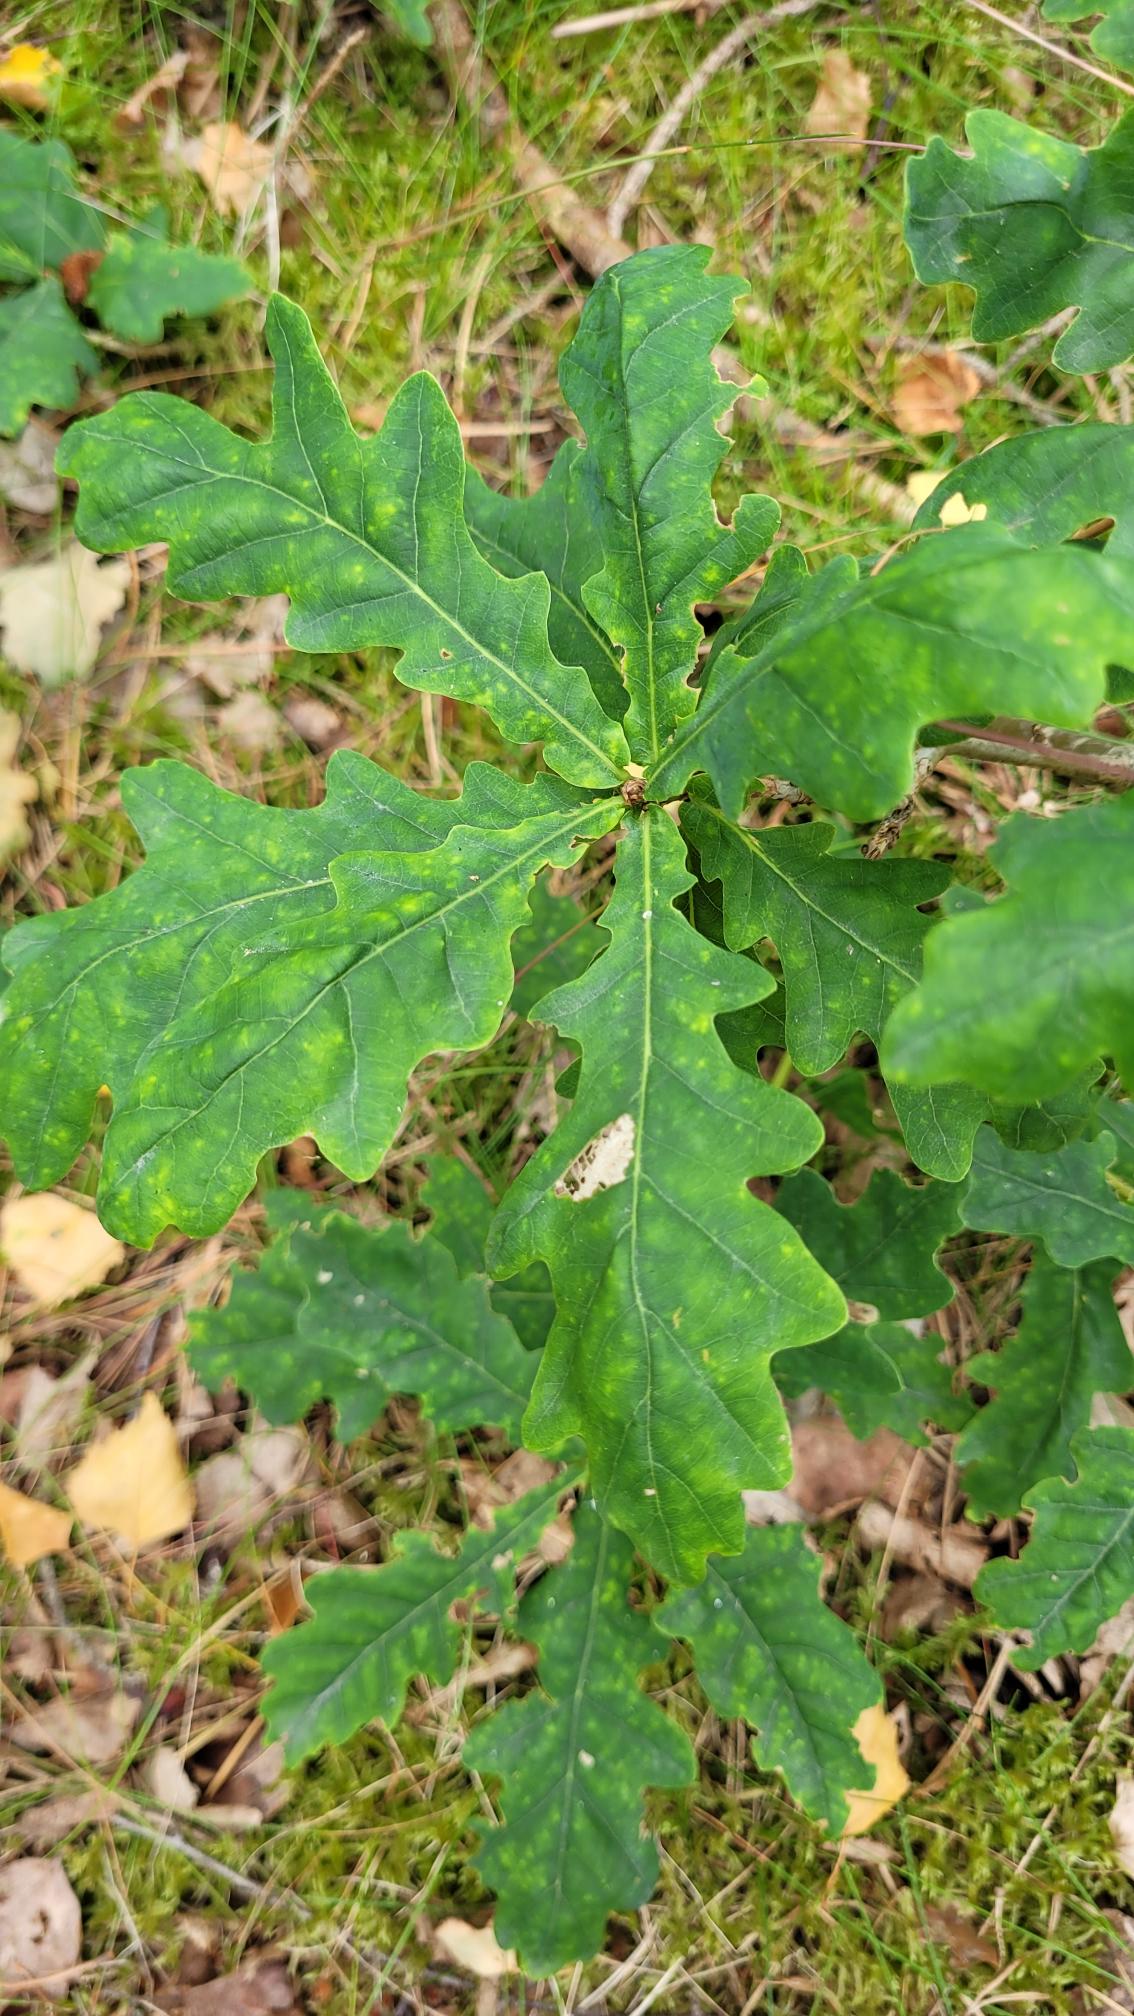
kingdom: Plantae
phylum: Tracheophyta
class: Magnoliopsida
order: Fagales
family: Fagaceae
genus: Quercus
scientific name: Quercus robur
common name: Stilk-eg/almindelig eg
